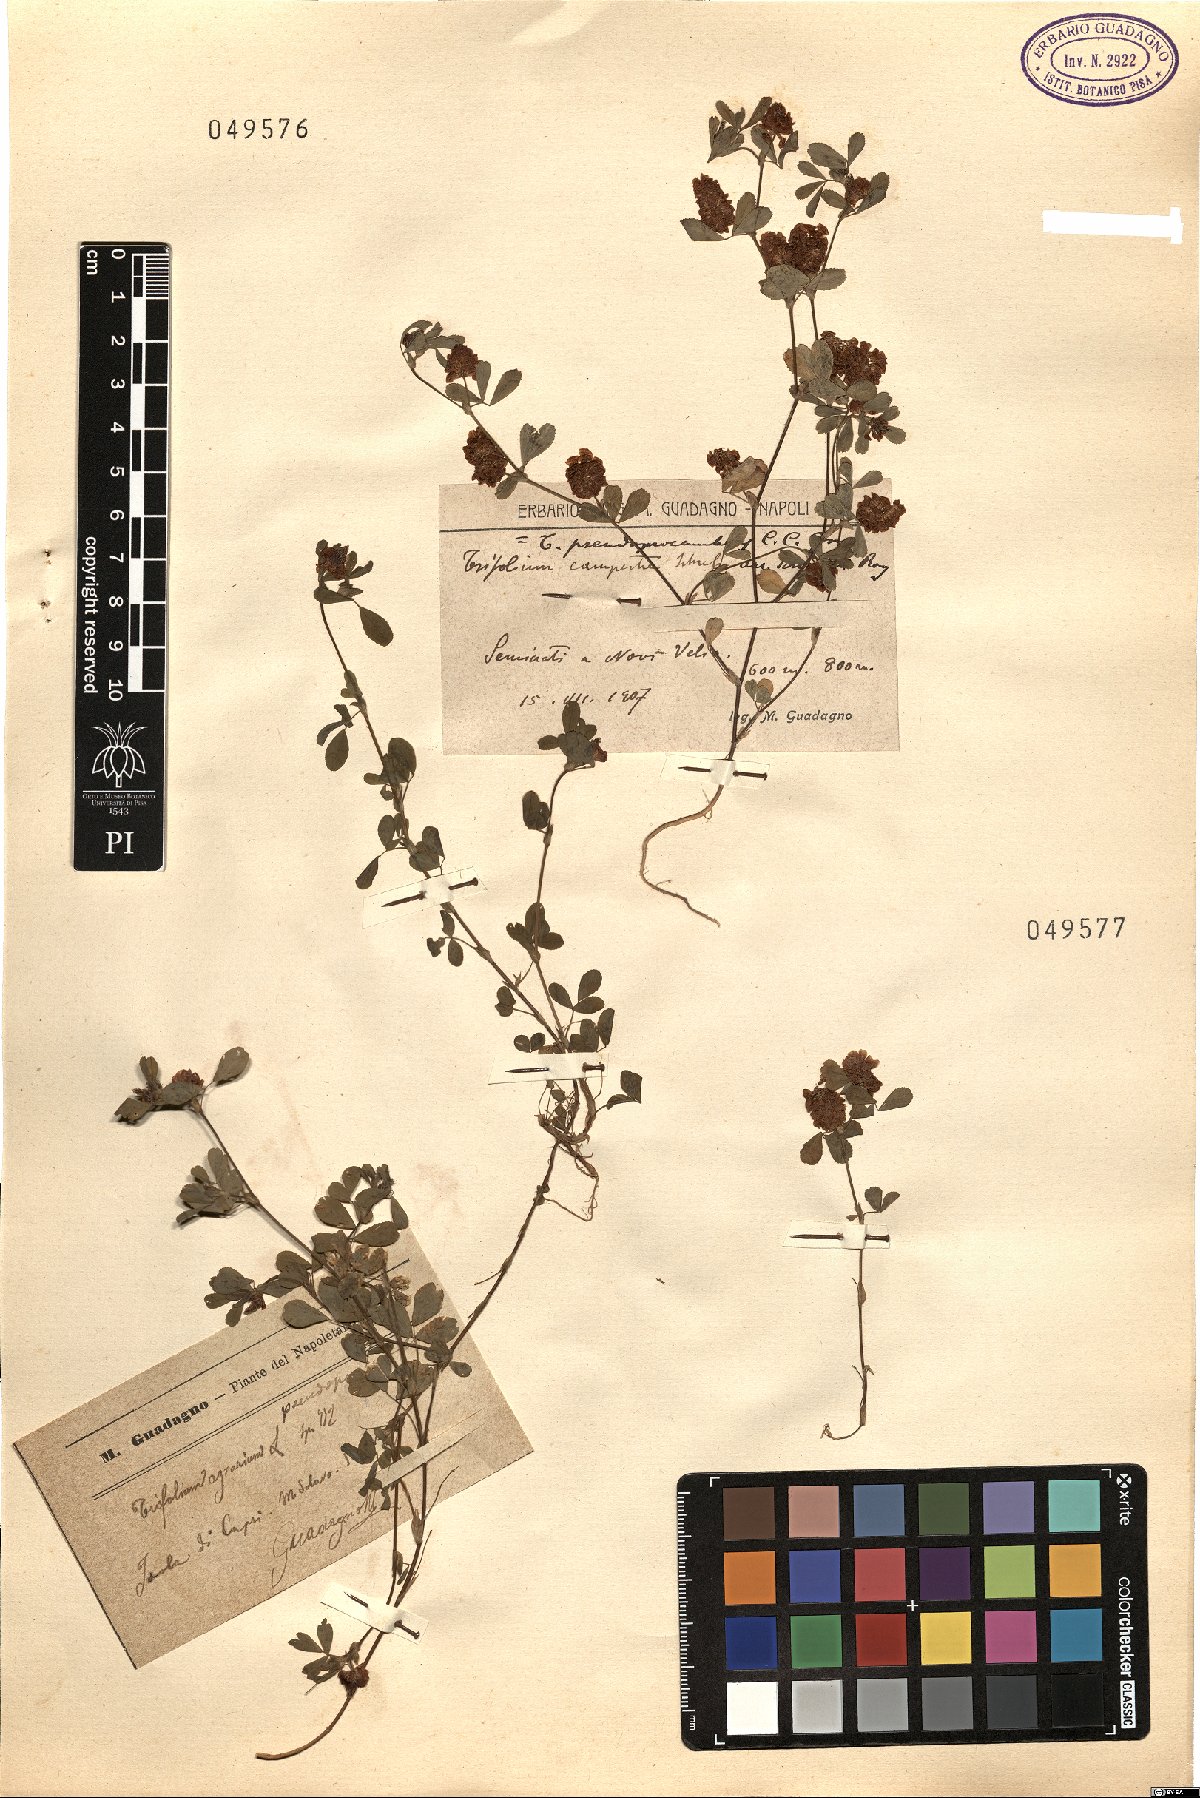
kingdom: Plantae
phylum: Tracheophyta
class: Magnoliopsida
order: Fabales
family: Fabaceae
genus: Trifolium
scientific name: Trifolium campestre
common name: Field clover
